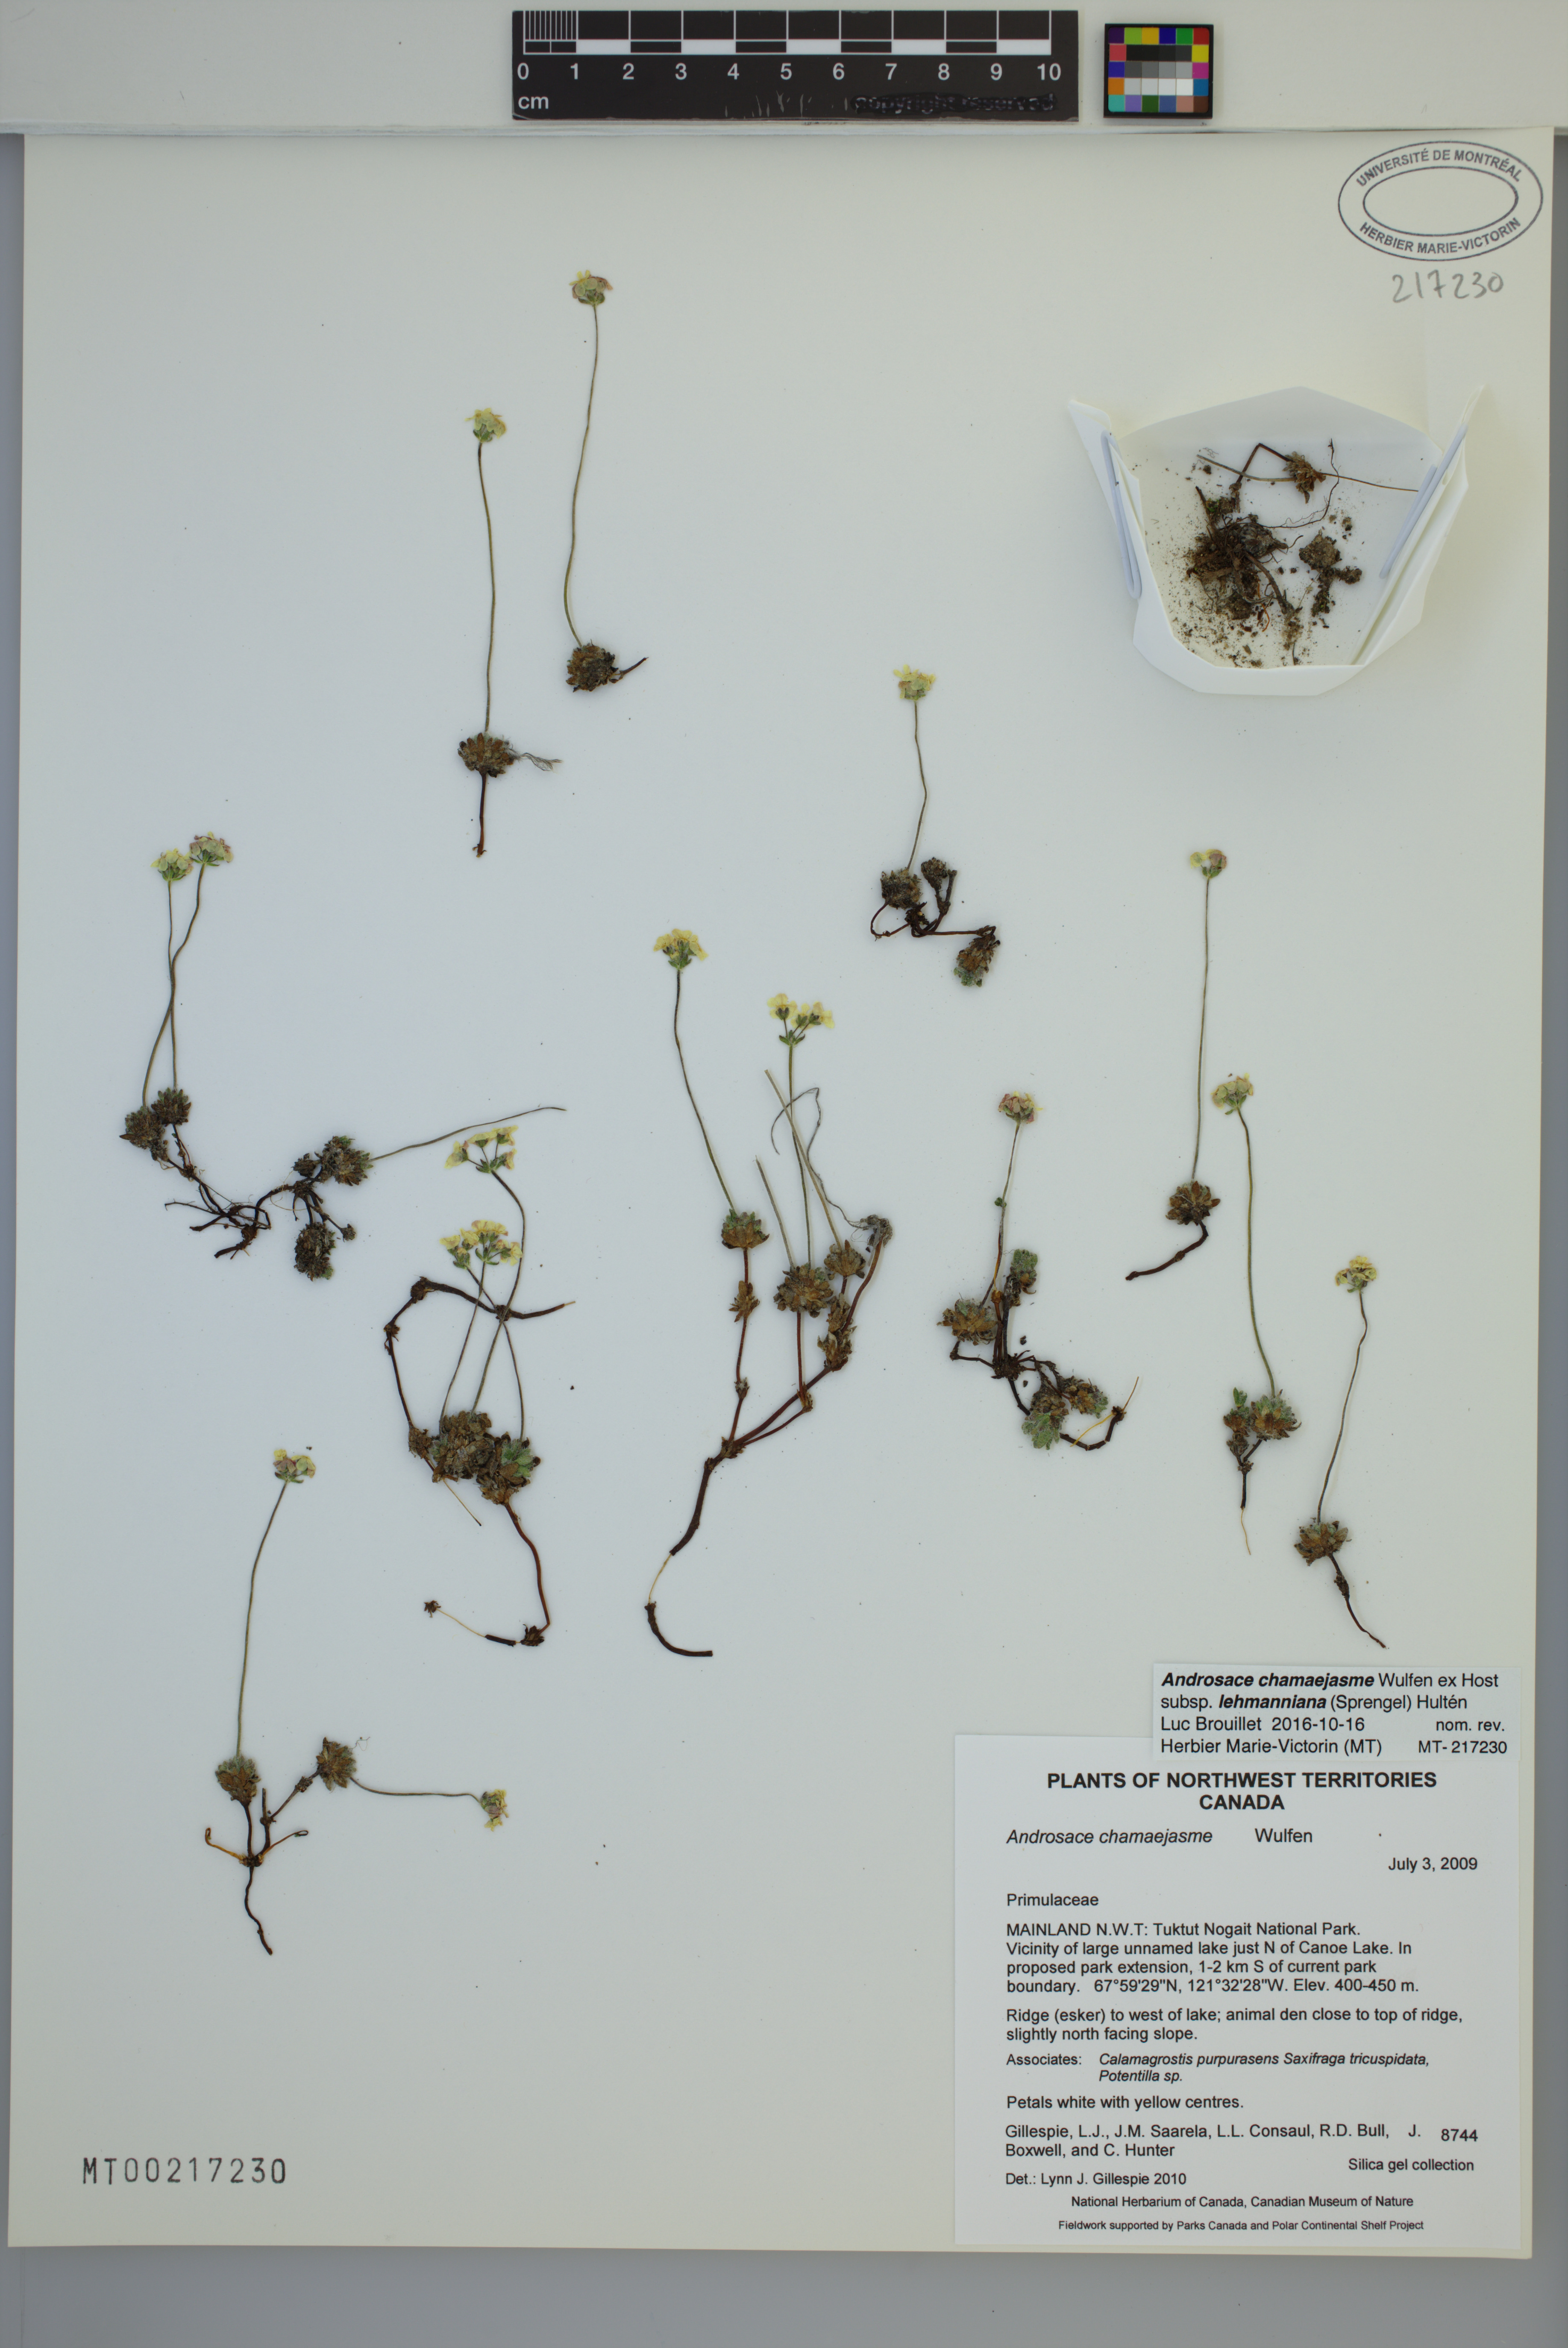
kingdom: Plantae
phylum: Tracheophyta
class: Magnoliopsida
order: Ericales
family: Primulaceae
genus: Androsace
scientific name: Androsace chamaejasme
